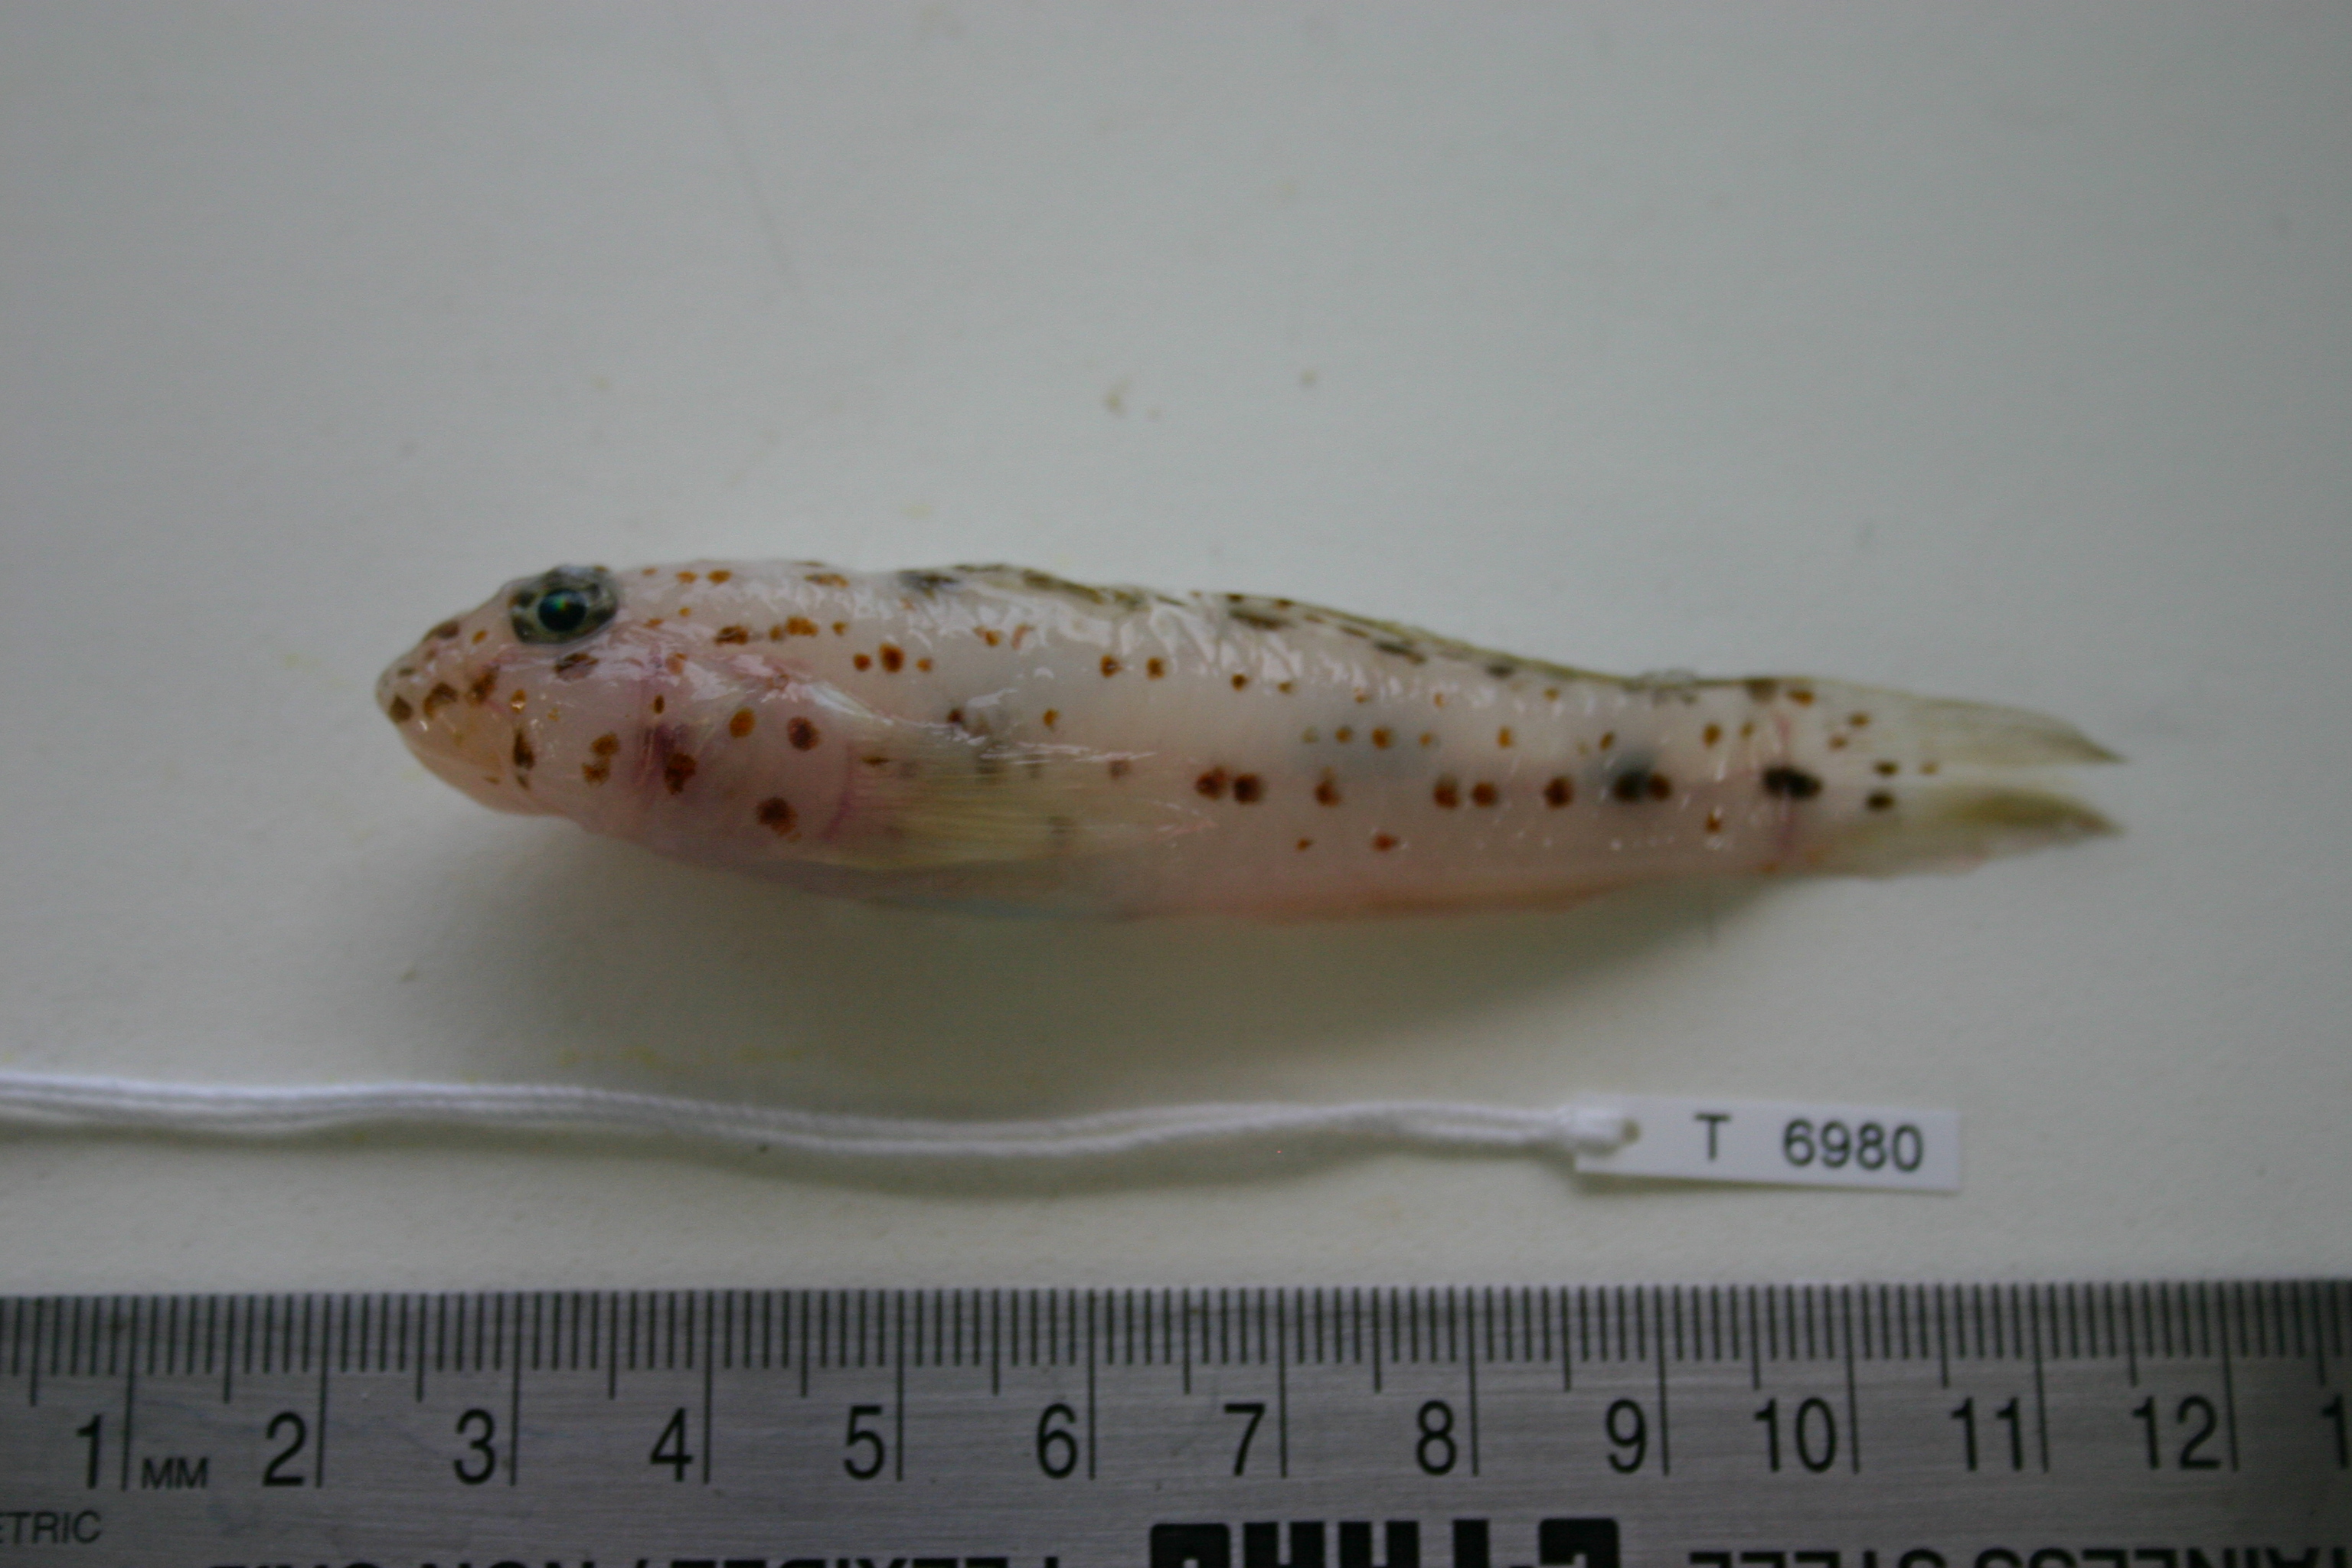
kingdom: Animalia
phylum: Chordata
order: Perciformes
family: Gobiidae
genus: Fusigobius
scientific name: Fusigobius inframaculatus
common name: Blotched goby
